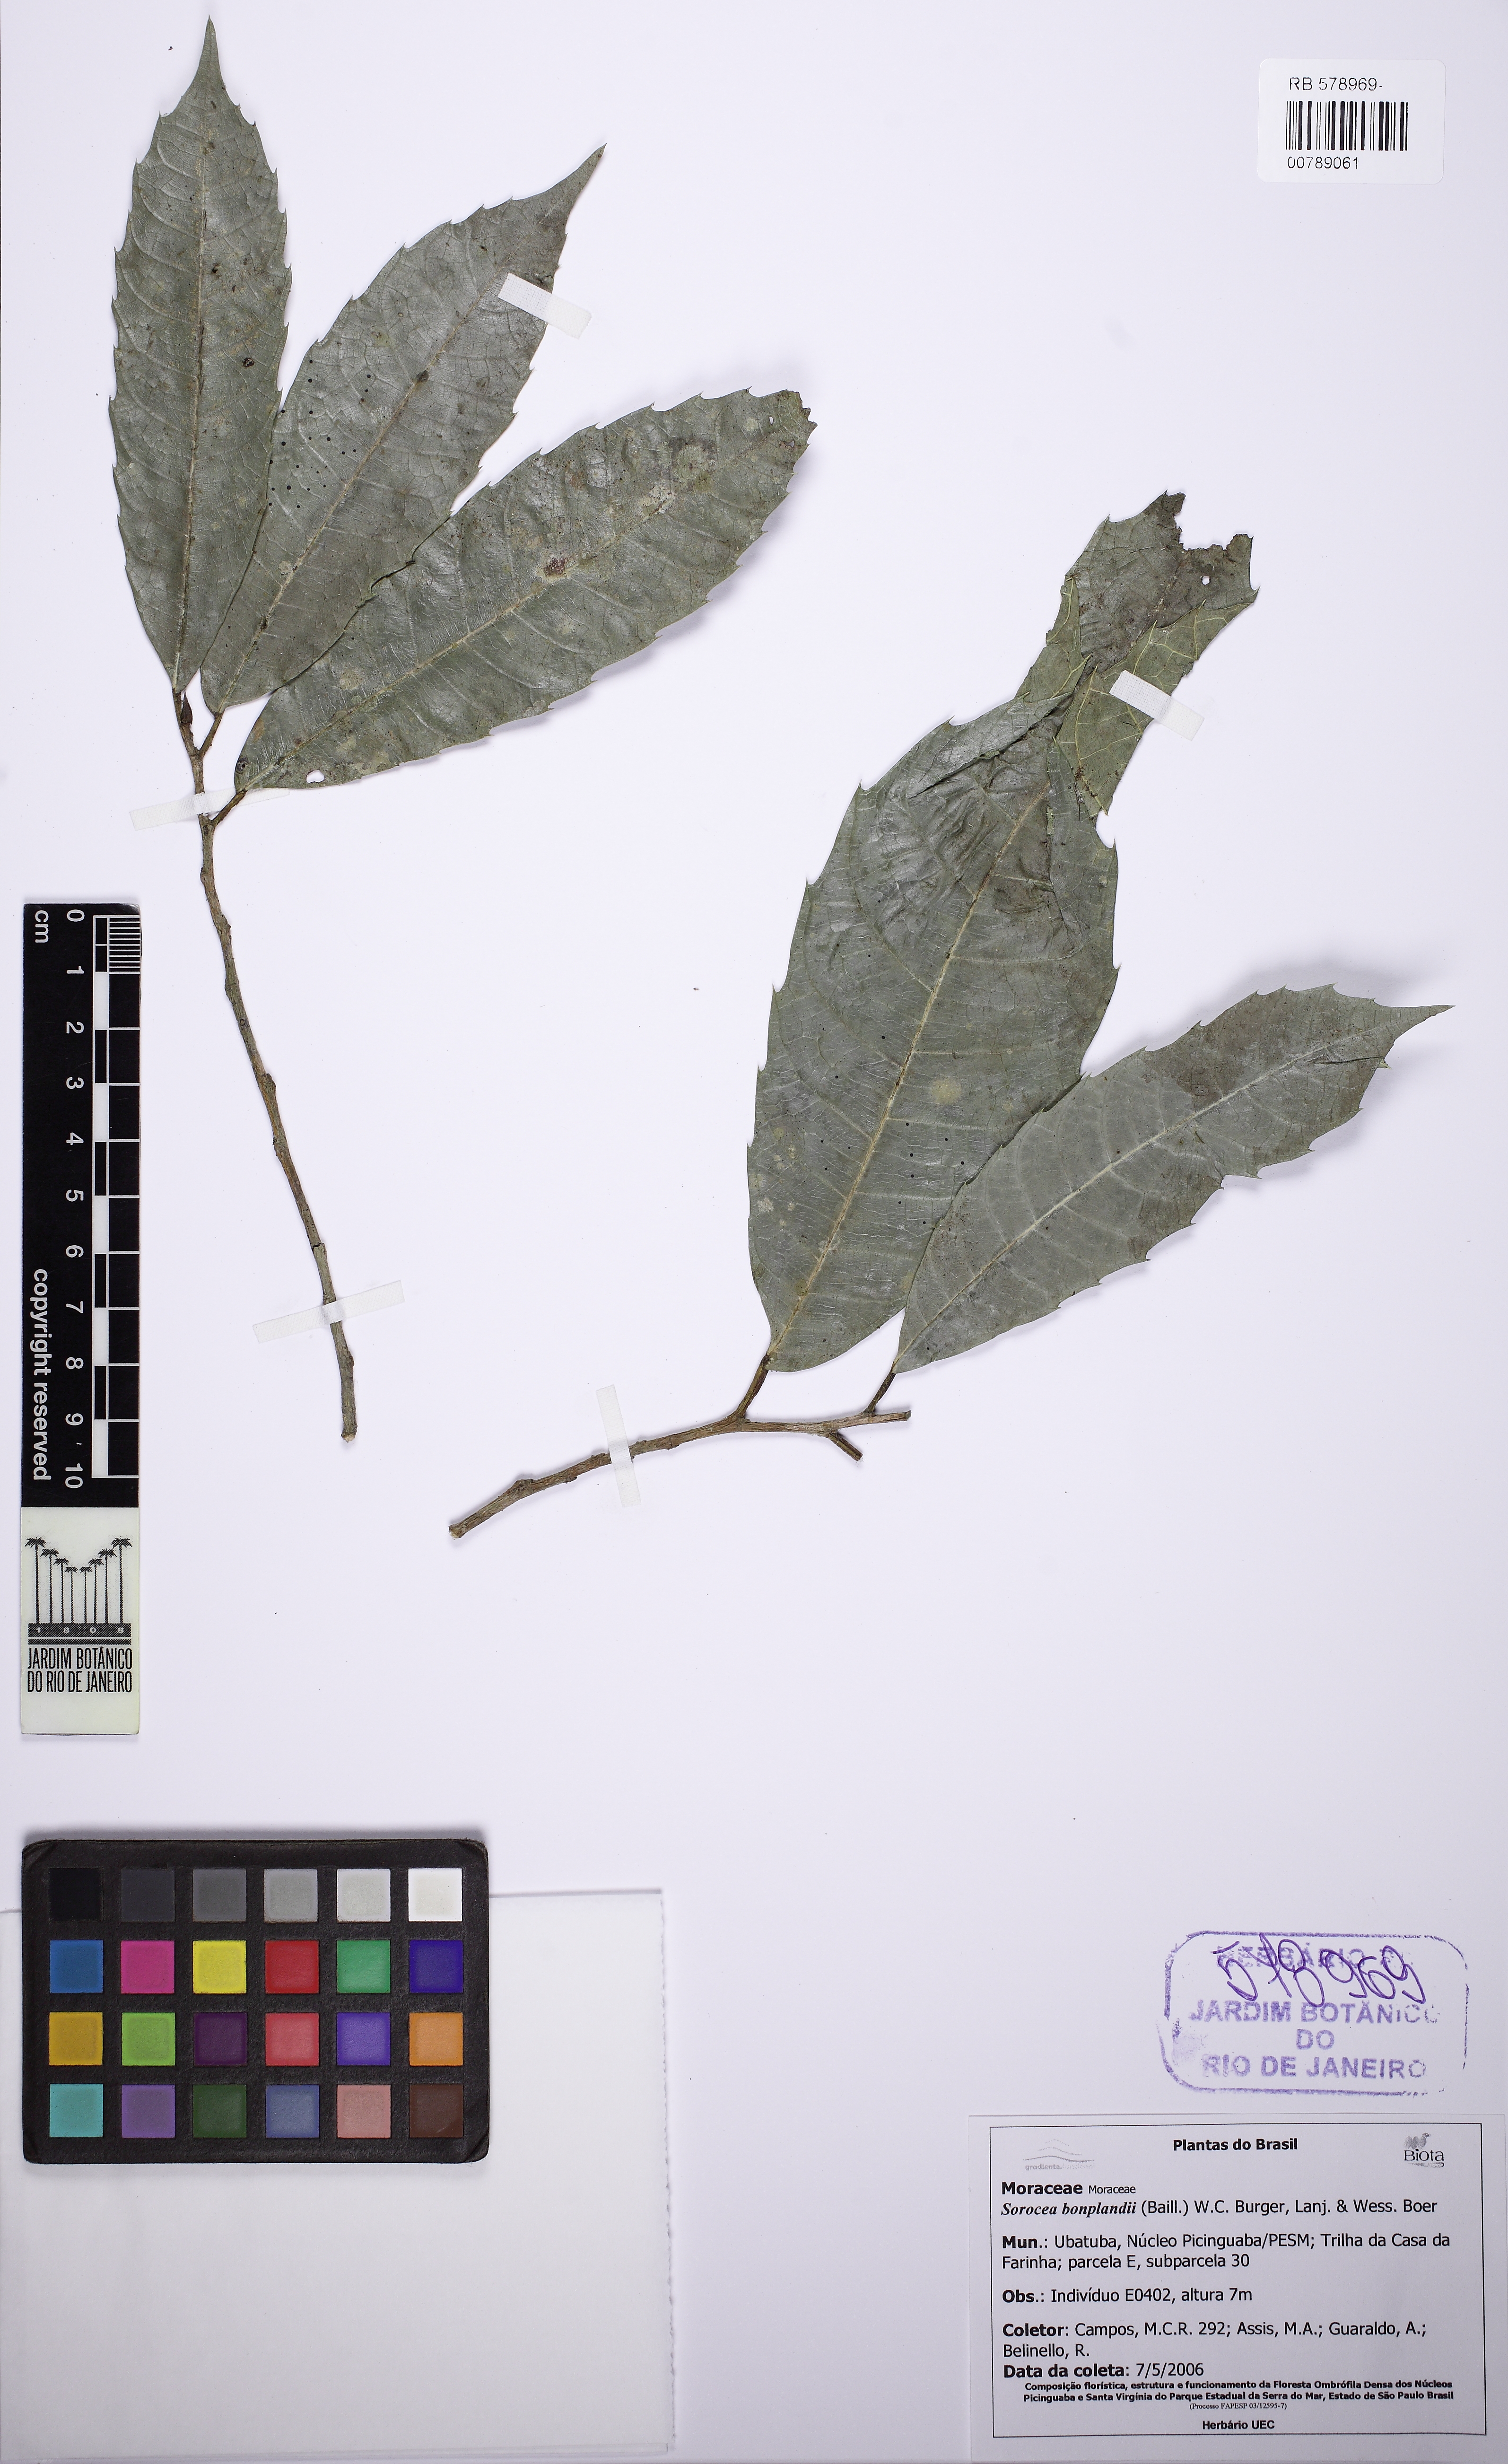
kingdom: Plantae
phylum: Tracheophyta
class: Magnoliopsida
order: Rosales
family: Moraceae
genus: Sorocea
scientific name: Sorocea bonplandii
